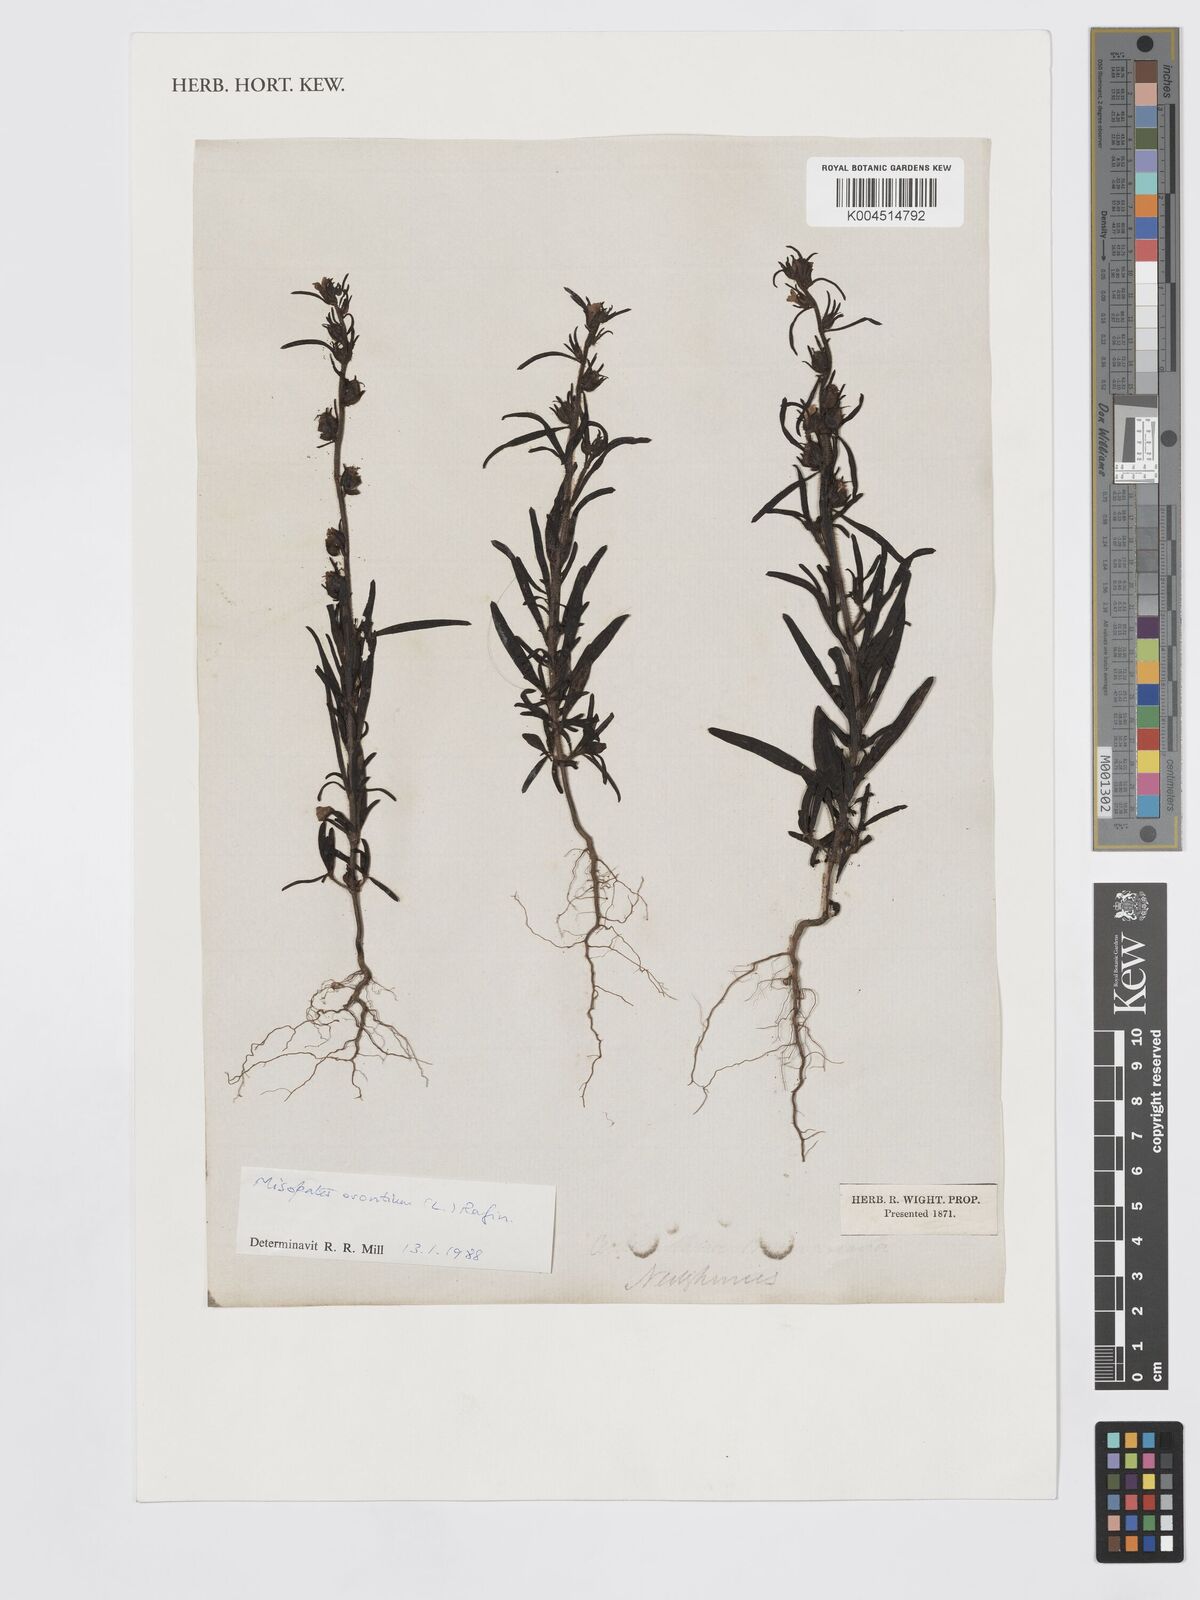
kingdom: Plantae
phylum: Tracheophyta
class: Magnoliopsida
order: Lamiales
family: Plantaginaceae
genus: Misopates
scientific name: Misopates orontium
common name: Weasel's-snout
